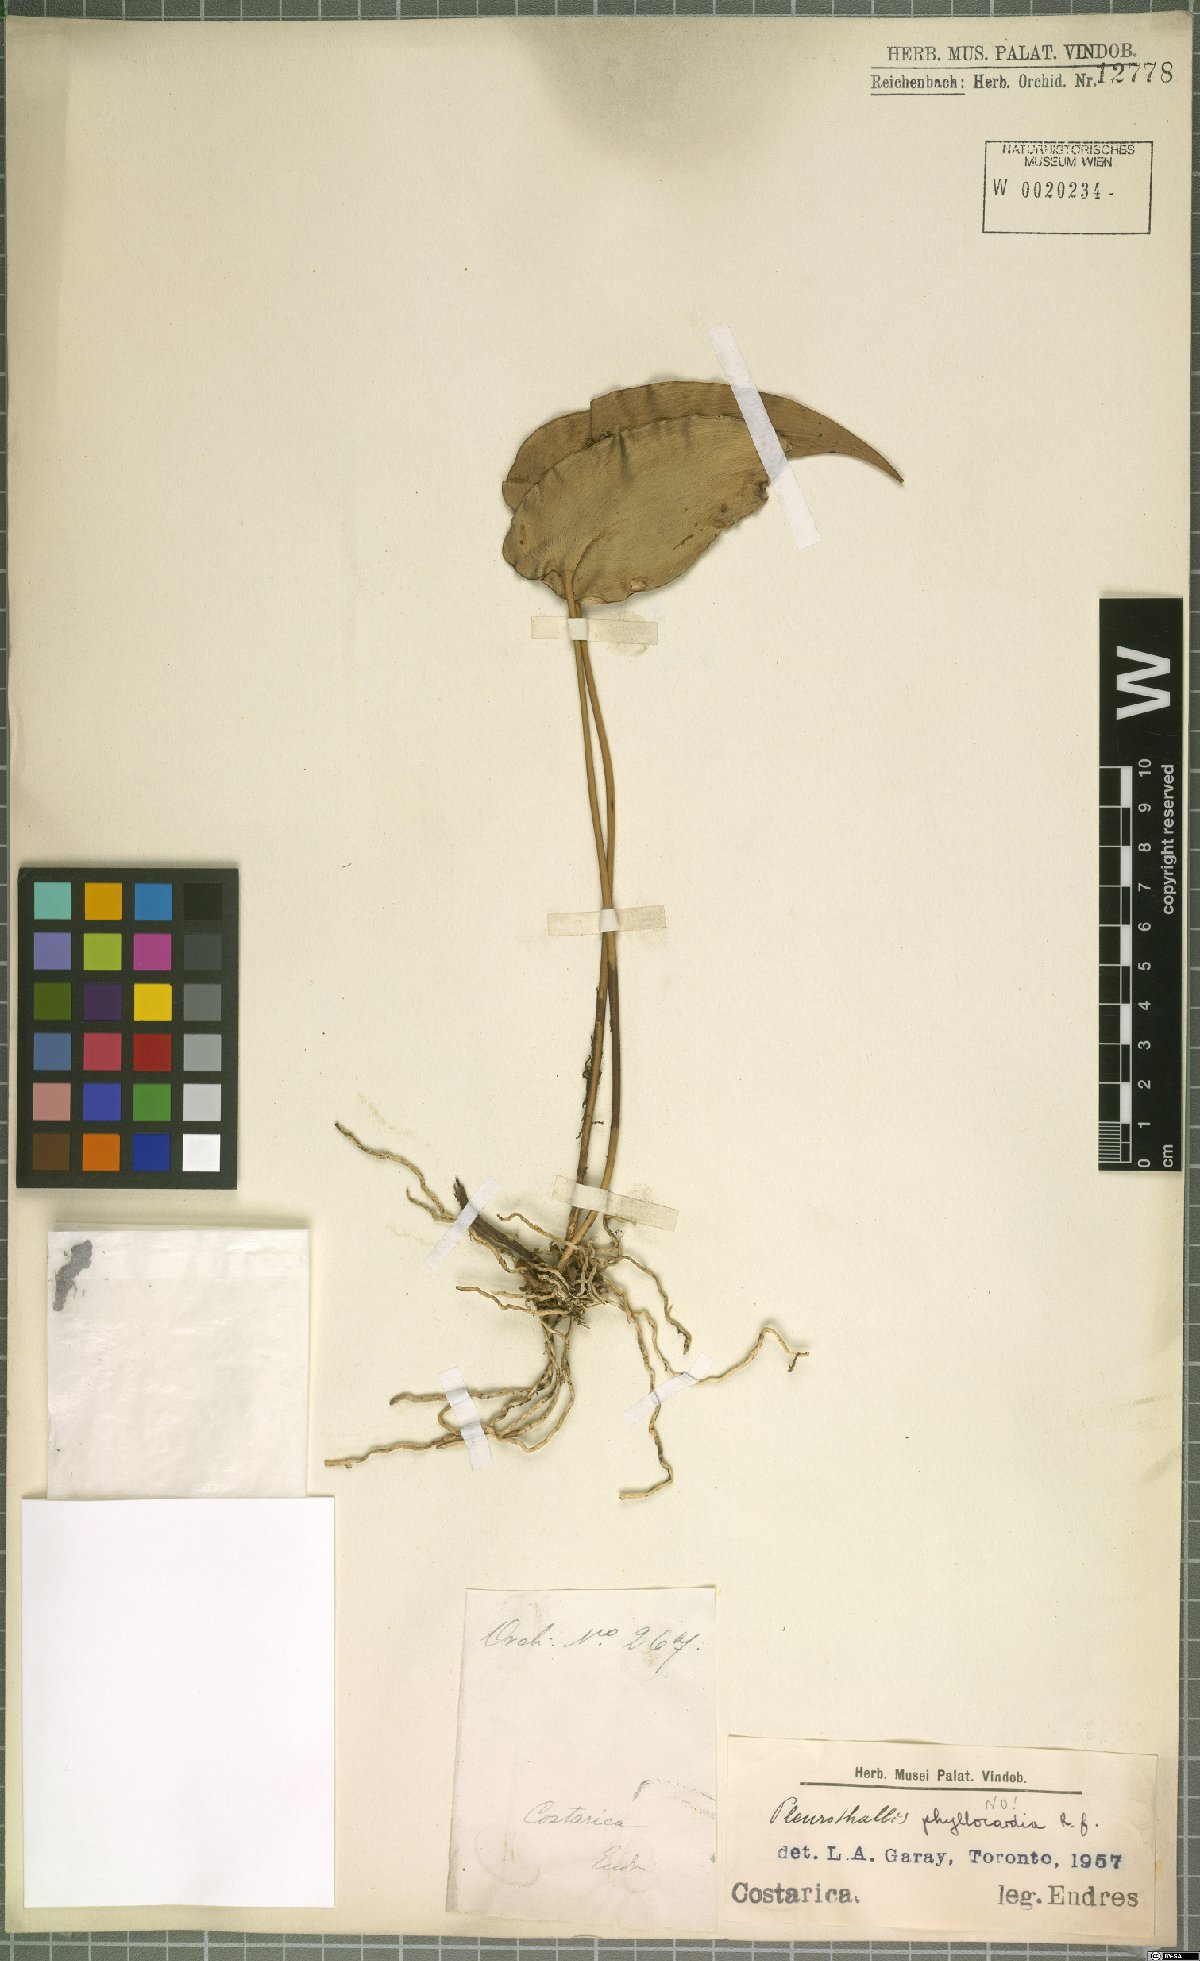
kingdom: Plantae
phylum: Tracheophyta
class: Liliopsida
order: Asparagales
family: Orchidaceae
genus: Pleurothallis
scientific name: Pleurothallis phyllocardia
